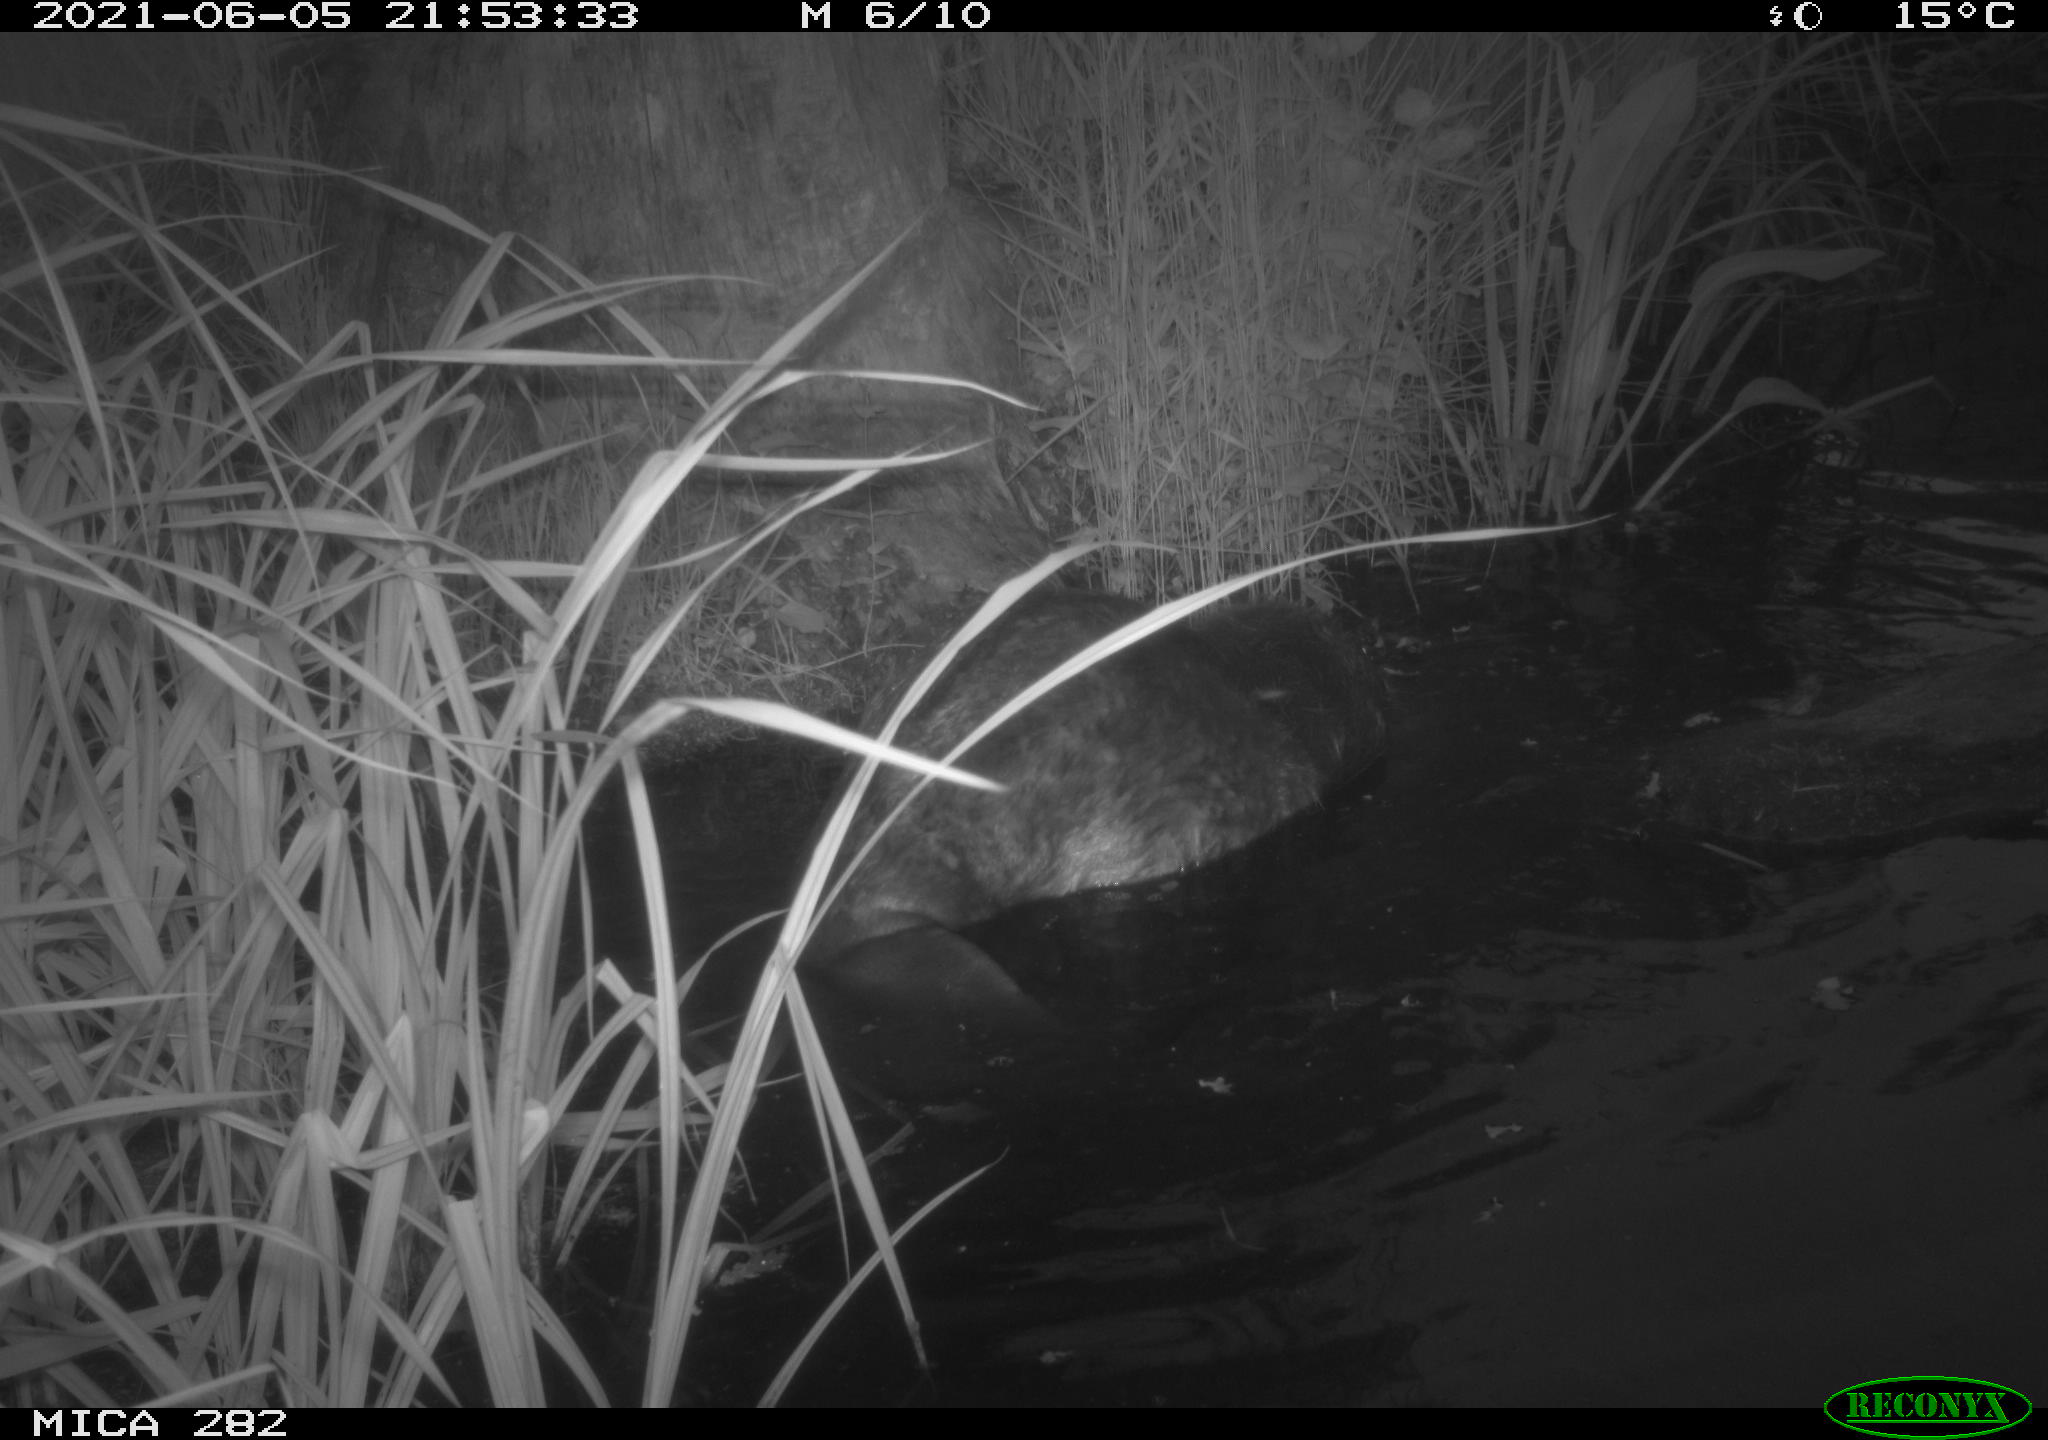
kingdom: Animalia
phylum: Chordata
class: Mammalia
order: Rodentia
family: Castoridae
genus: Castor
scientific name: Castor fiber
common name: Eurasian beaver
